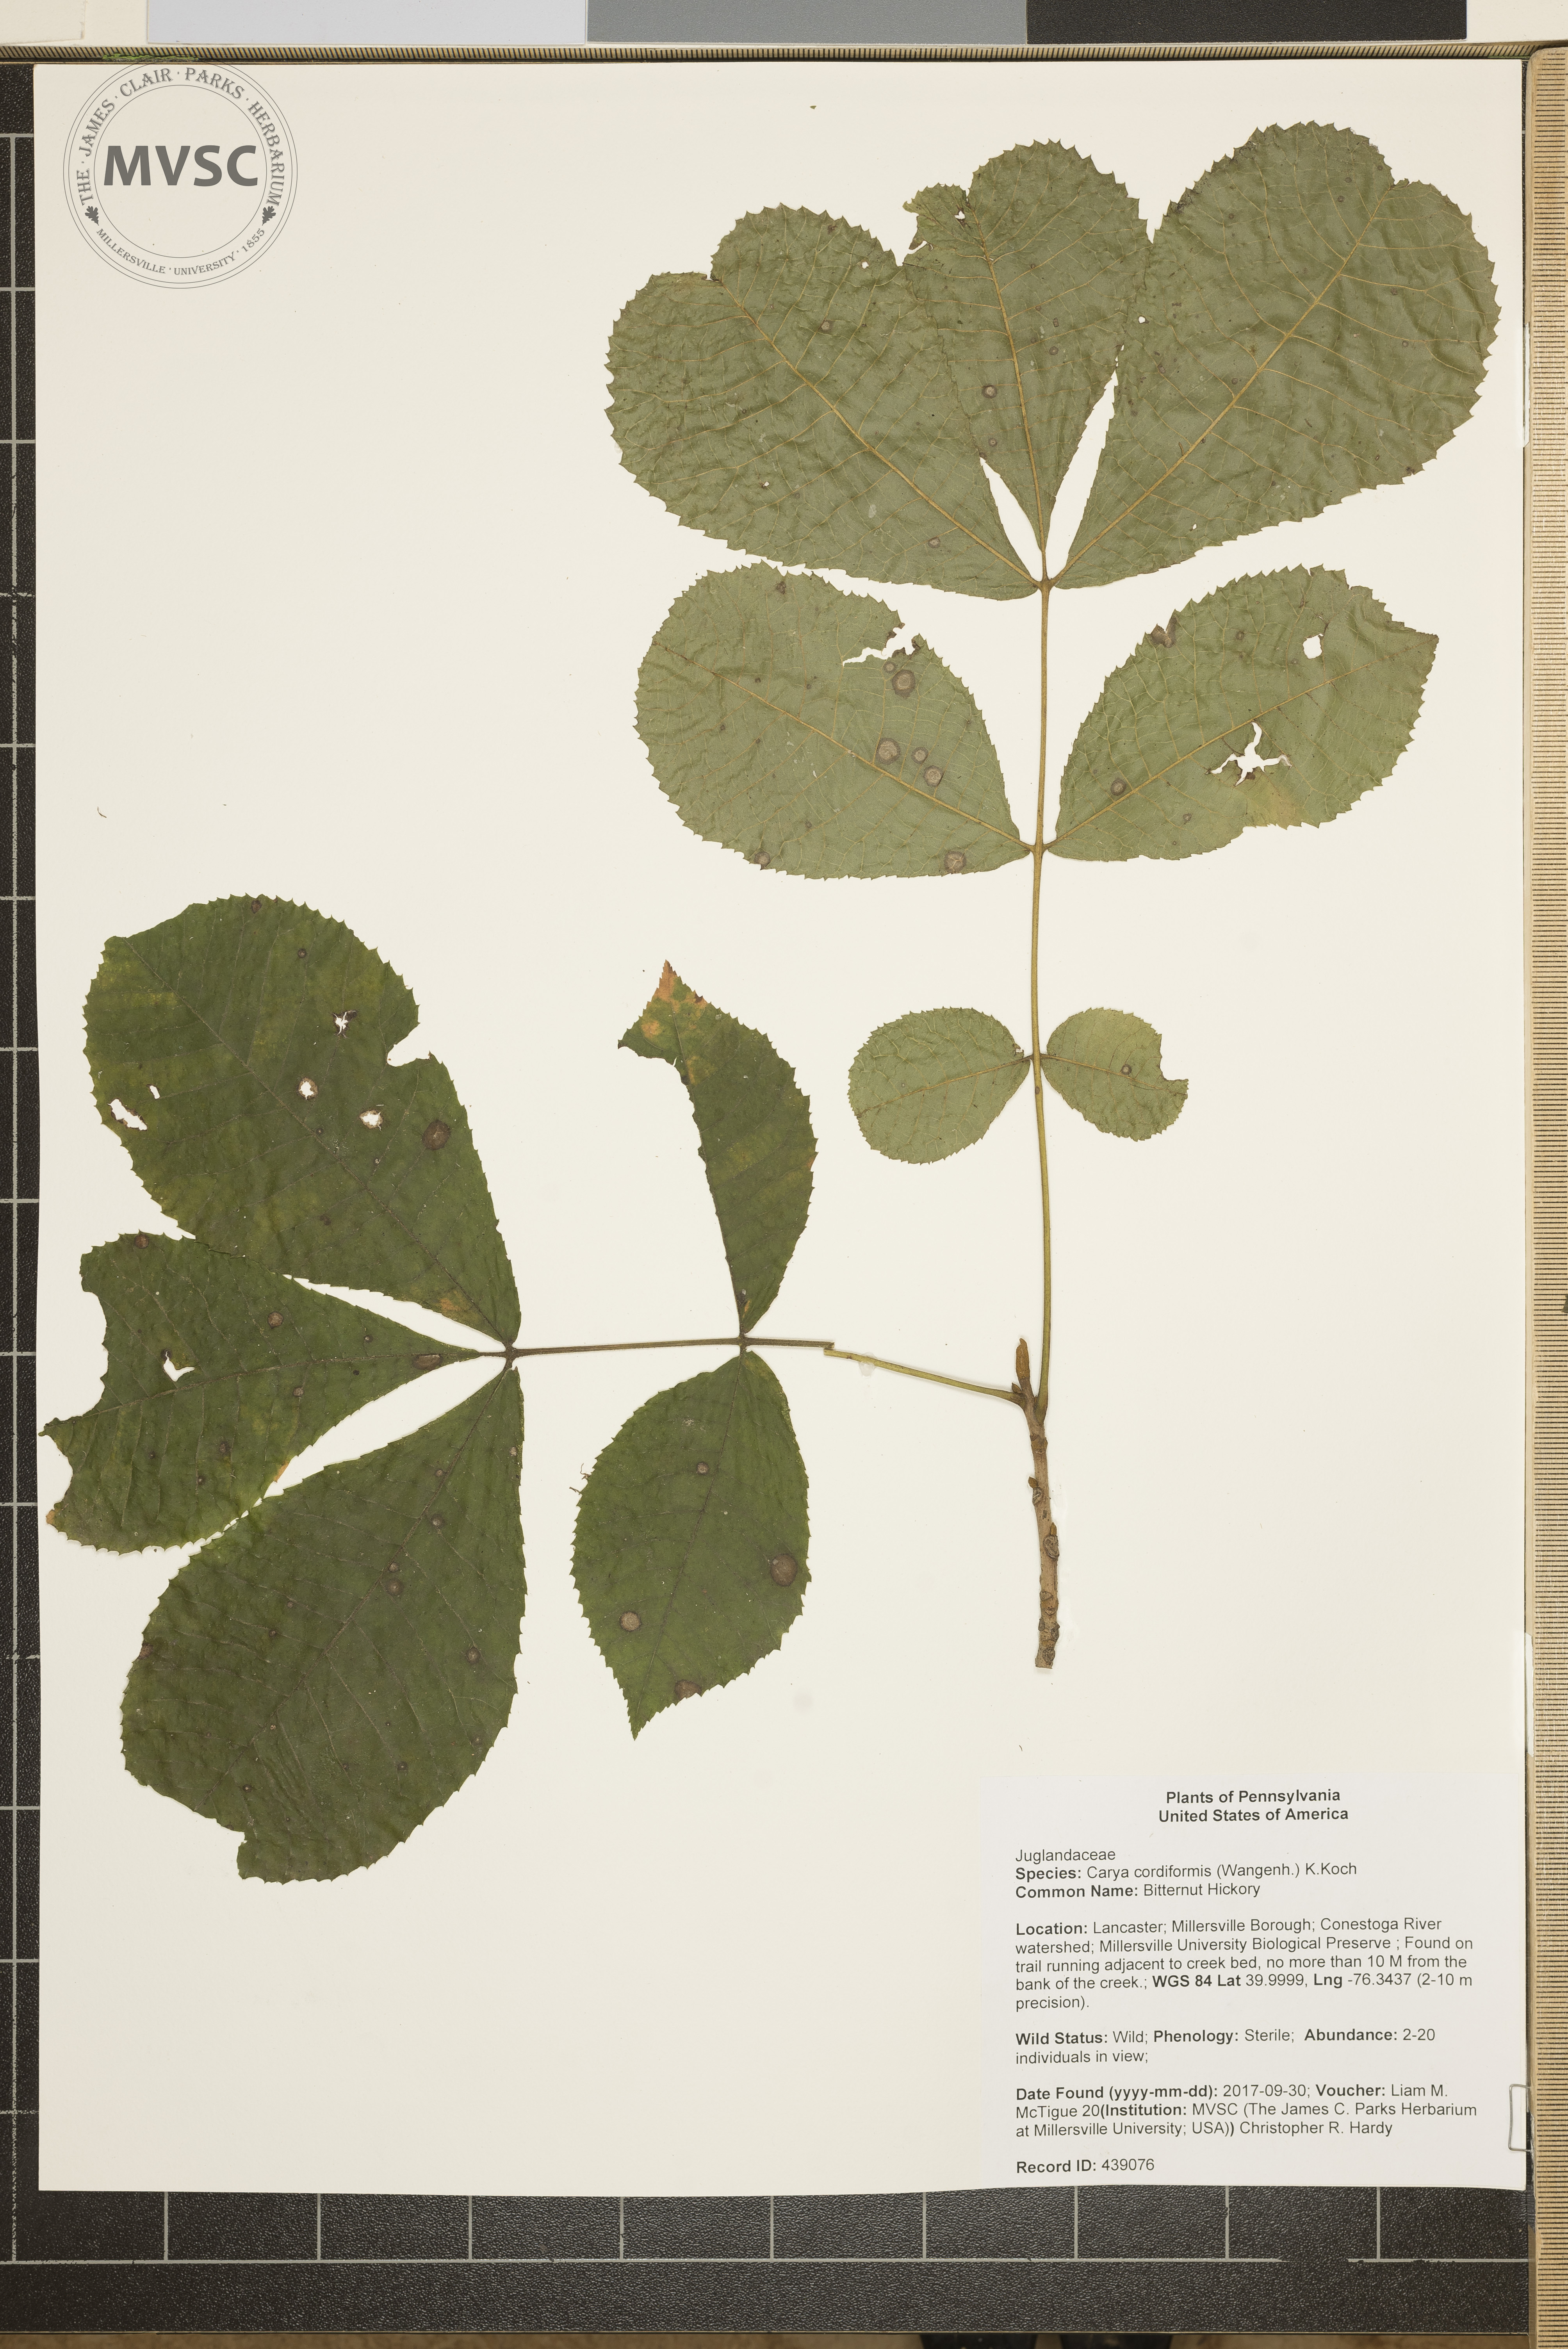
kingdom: Plantae
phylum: Tracheophyta
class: Magnoliopsida
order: Fagales
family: Juglandaceae
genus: Carya
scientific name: Carya cordiformis
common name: Bitternut Hickory
